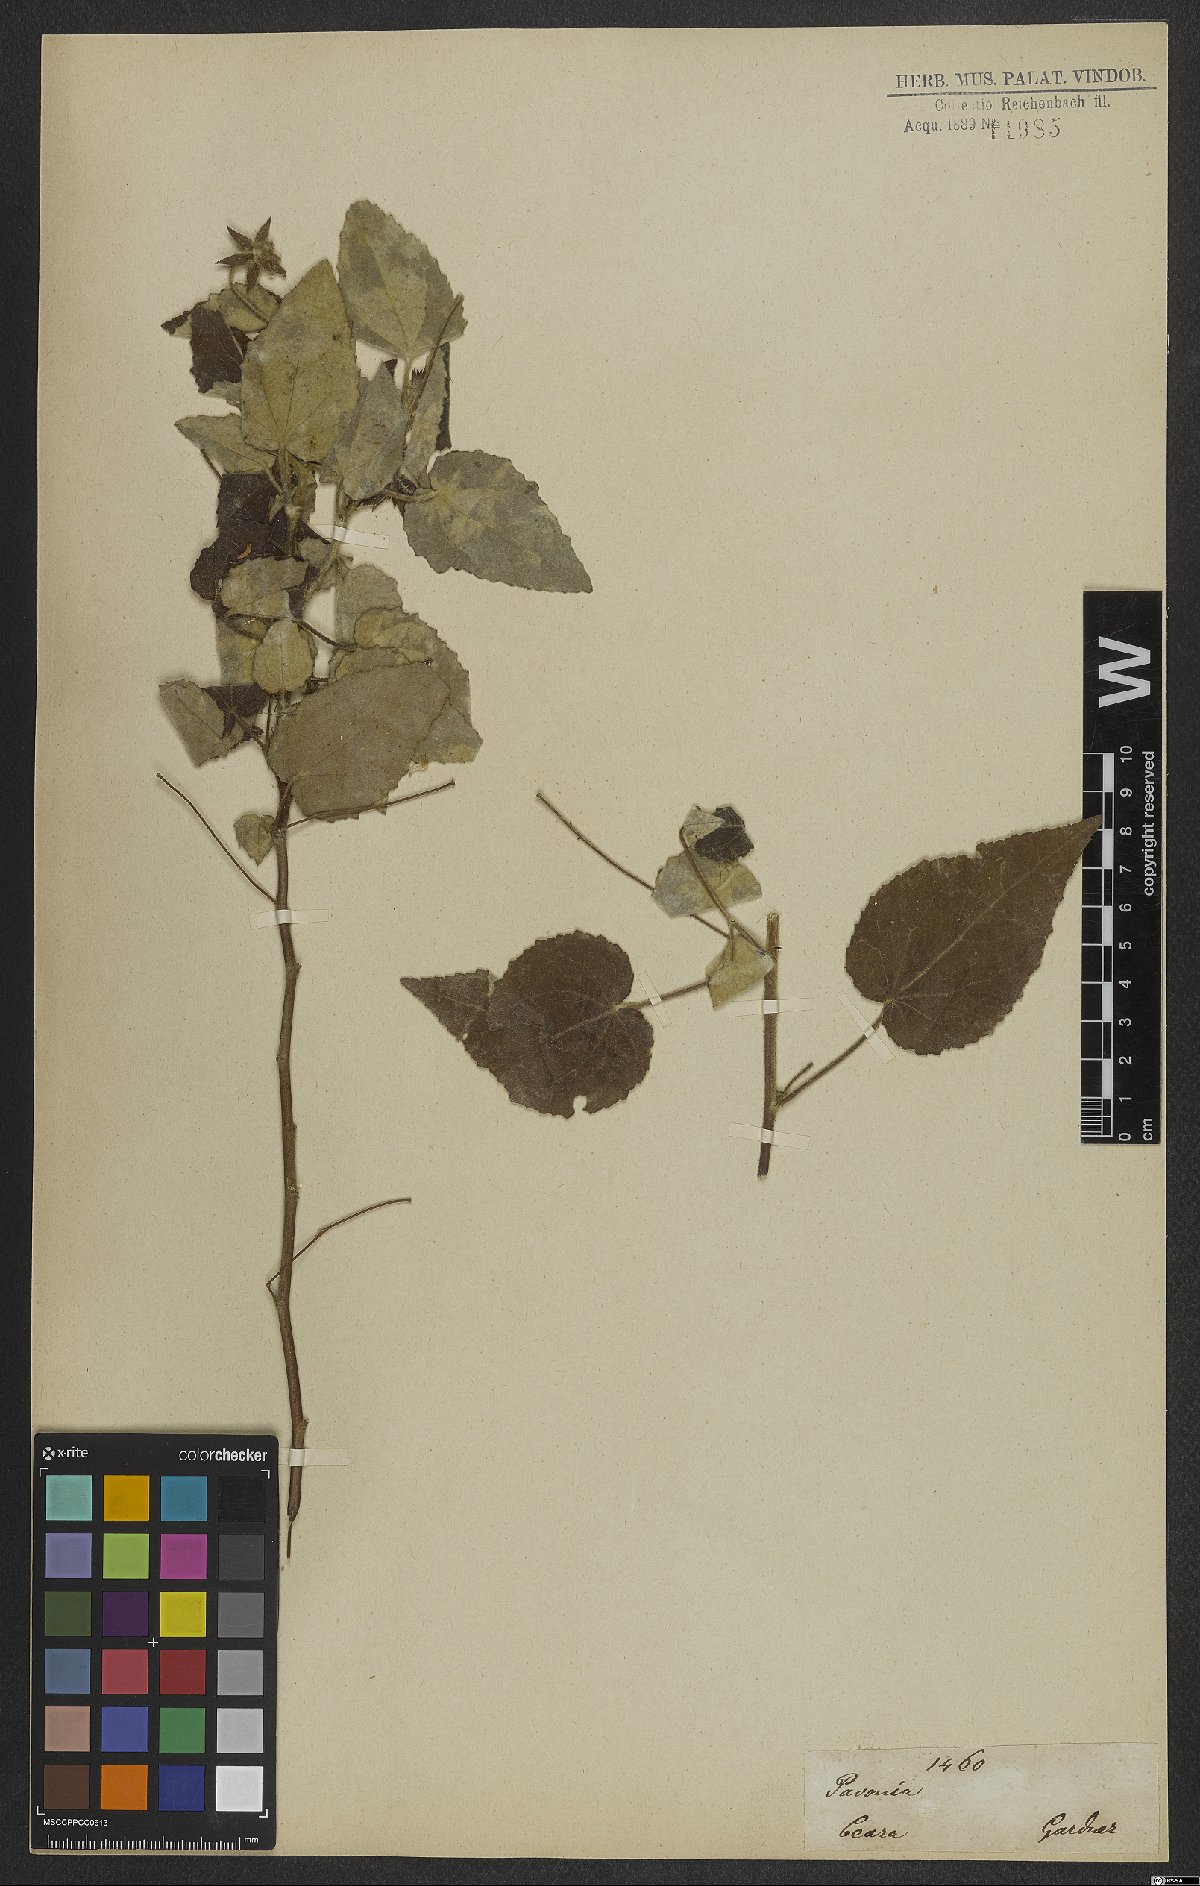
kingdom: Plantae
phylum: Tracheophyta
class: Magnoliopsida
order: Malvales
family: Malvaceae
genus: Pavonia
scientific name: Pavonia
